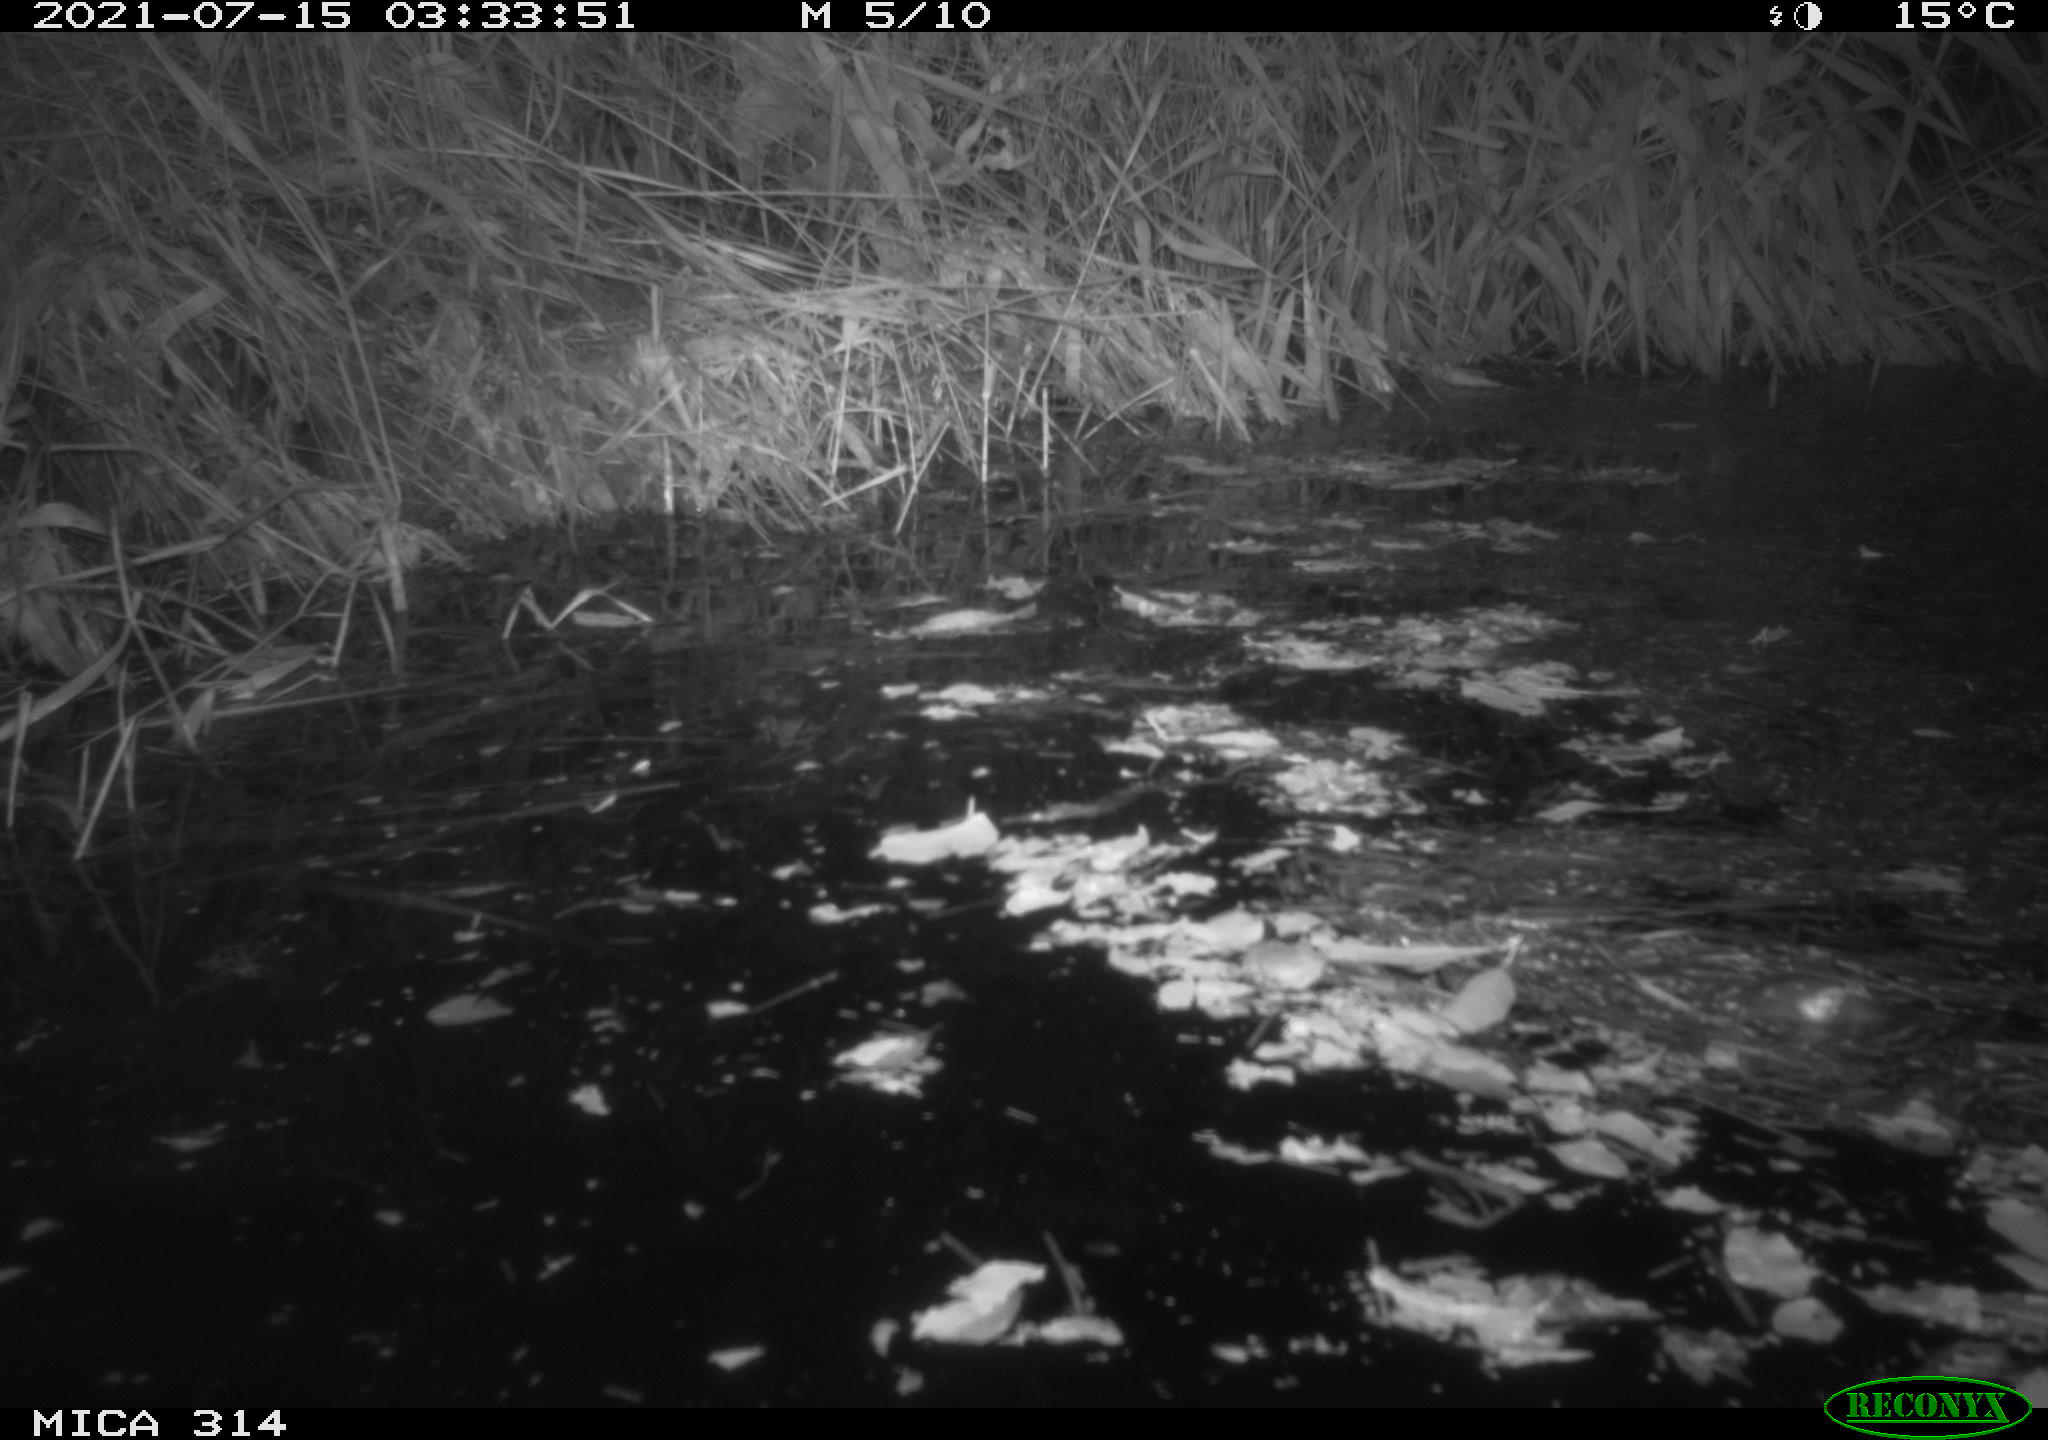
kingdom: Animalia
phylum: Chordata
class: Mammalia
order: Rodentia
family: Muridae
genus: Rattus
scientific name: Rattus norvegicus
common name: Brown rat
